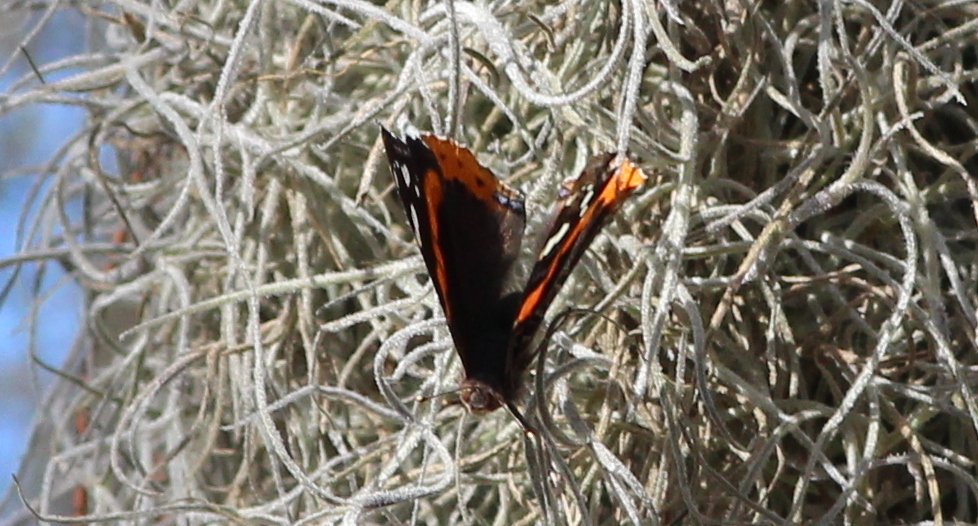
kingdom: Animalia
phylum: Arthropoda
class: Insecta
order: Lepidoptera
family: Nymphalidae
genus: Vanessa
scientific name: Vanessa atalanta
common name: Red Admiral
